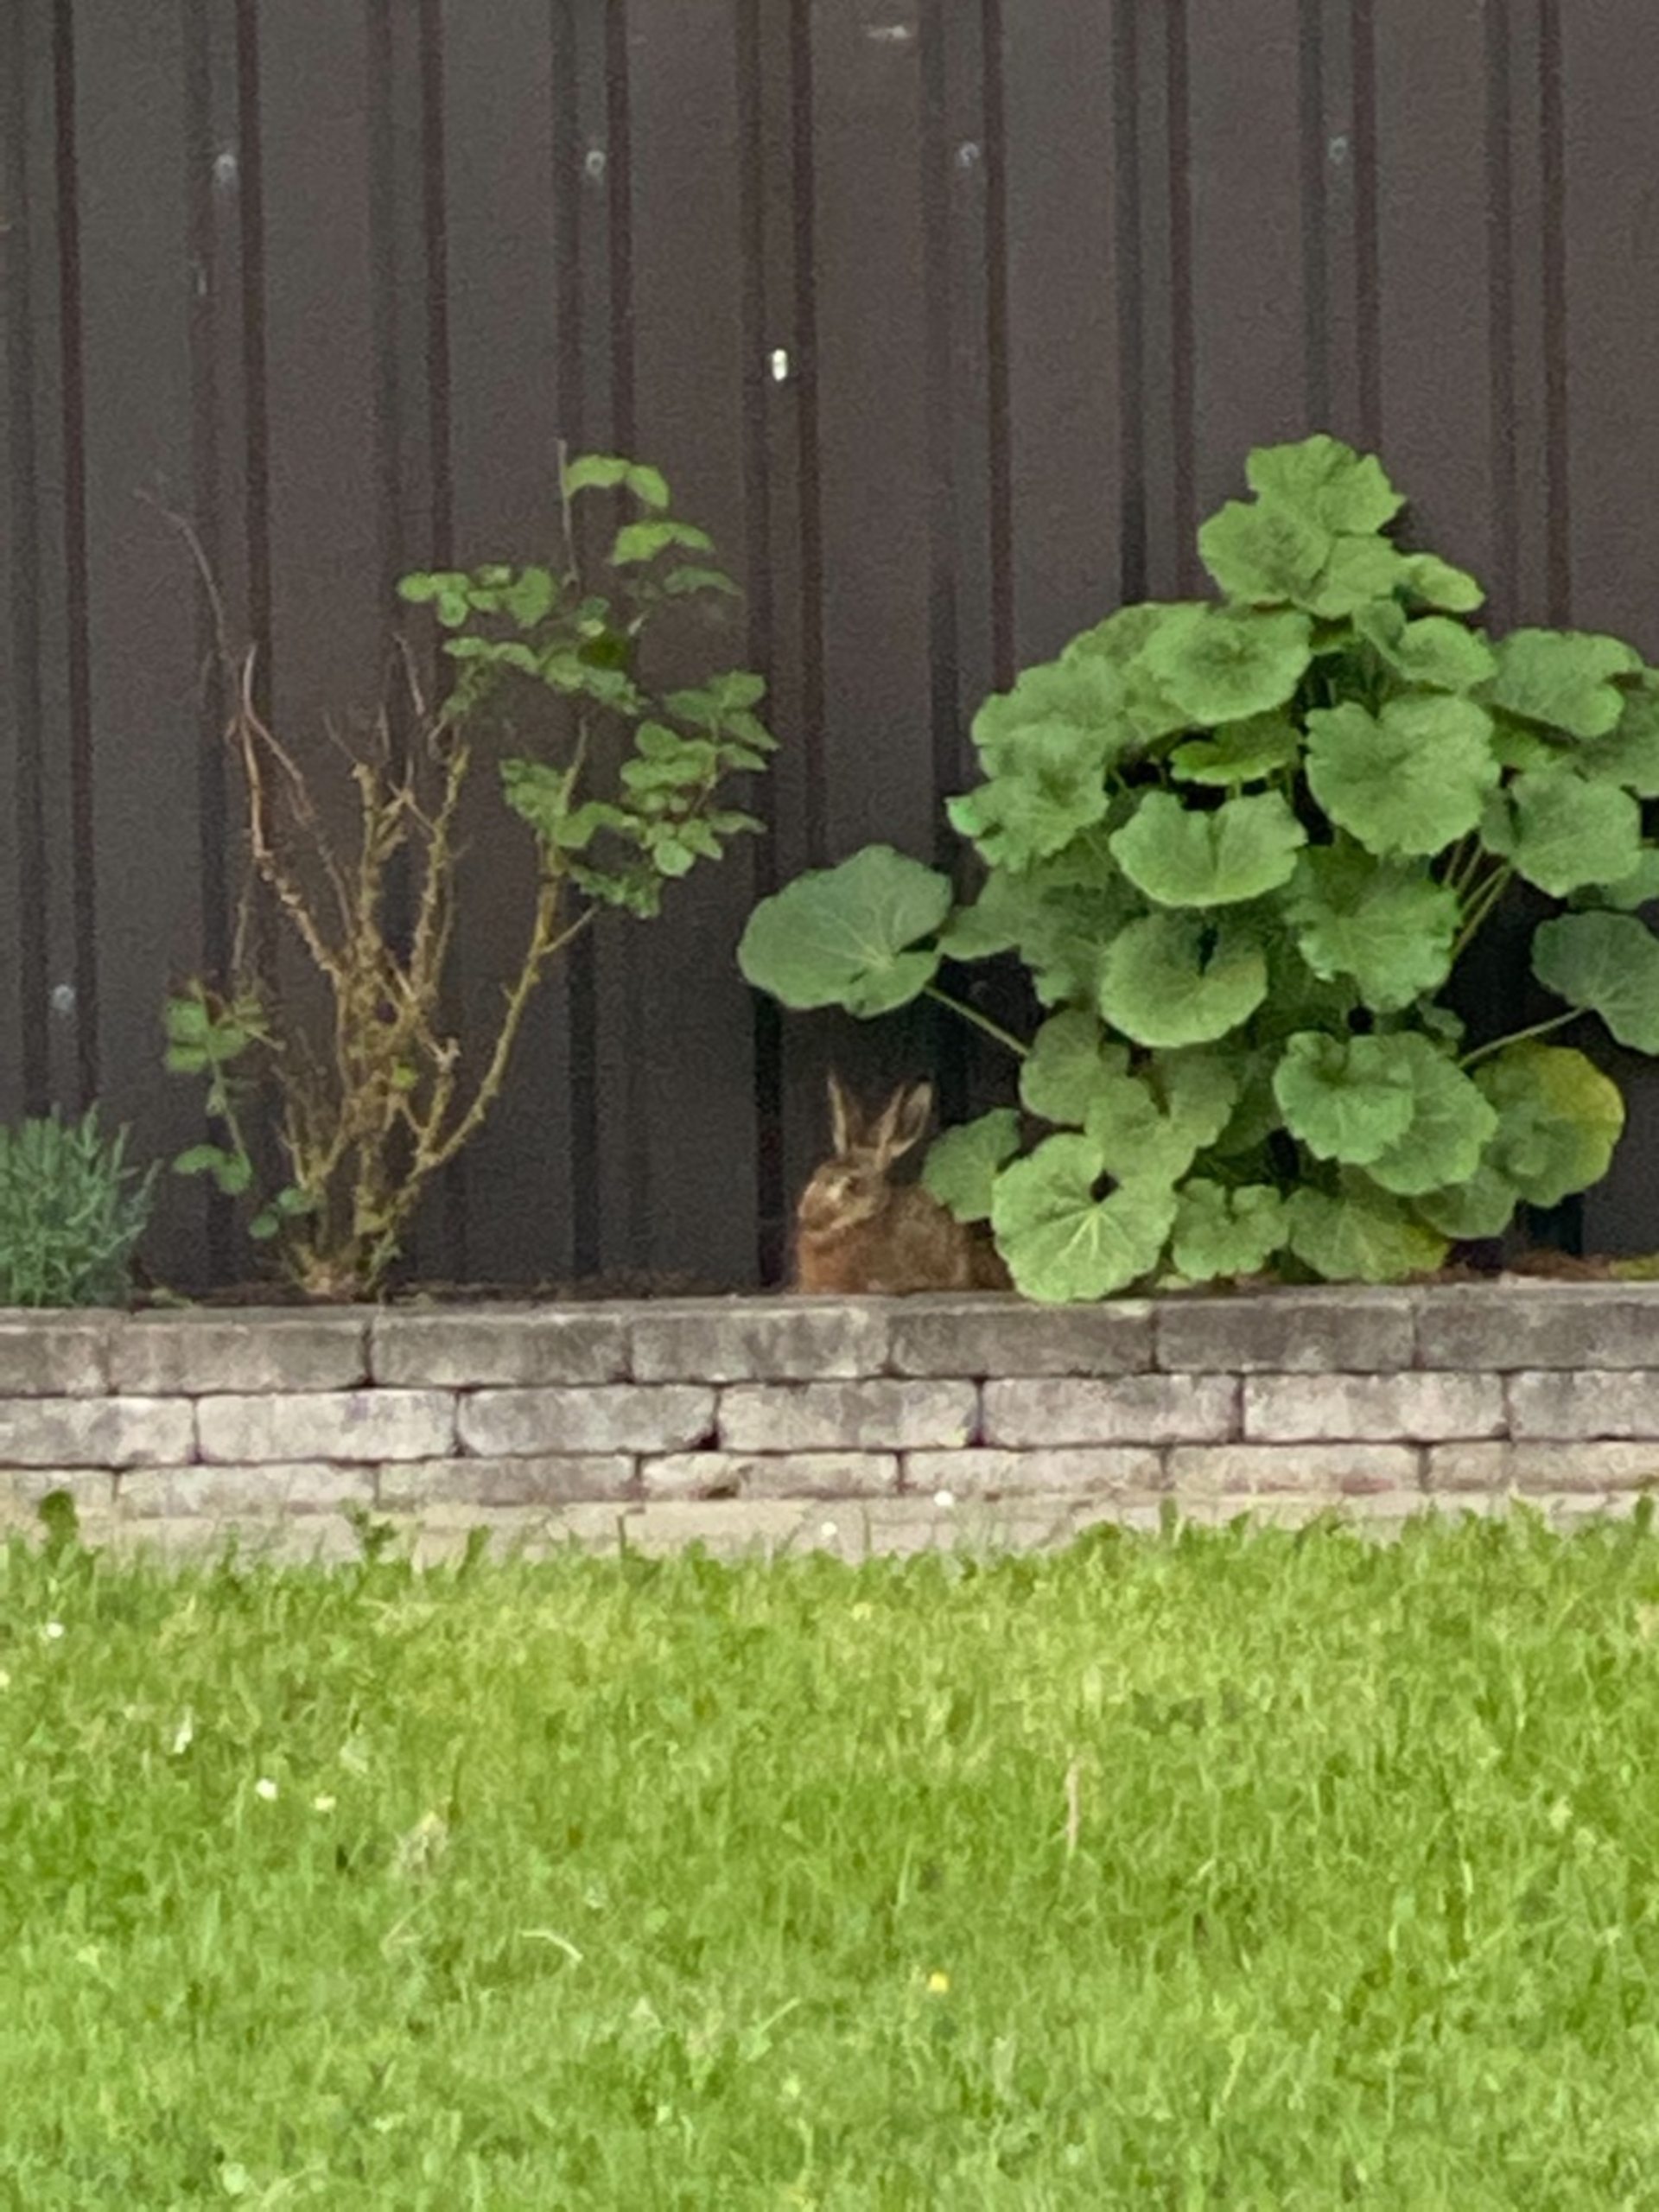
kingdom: Animalia
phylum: Chordata
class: Mammalia
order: Lagomorpha
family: Leporidae
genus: Lepus
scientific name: Lepus europaeus
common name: Hare
